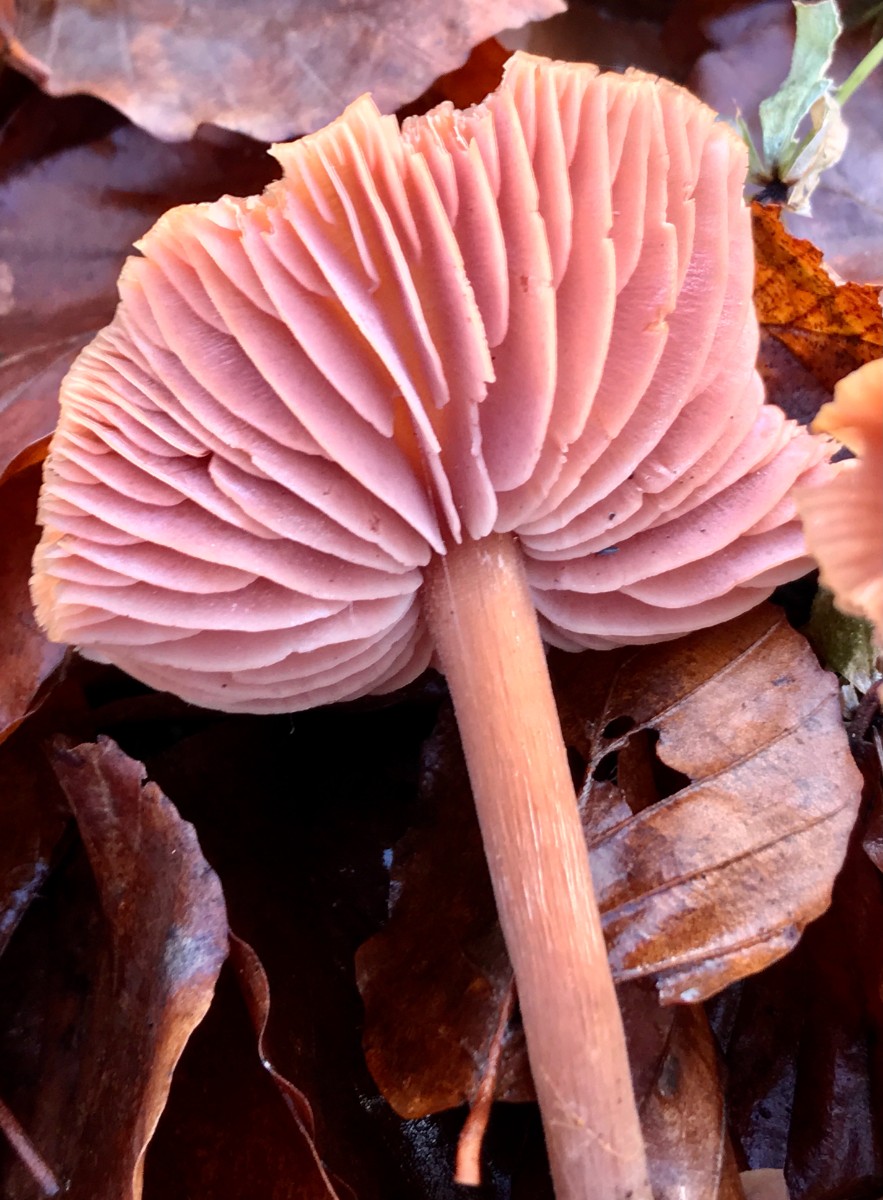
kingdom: Fungi
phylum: Basidiomycota
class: Agaricomycetes
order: Agaricales
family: Hydnangiaceae
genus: Laccaria
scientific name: Laccaria proxima
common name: stor ametysthat
